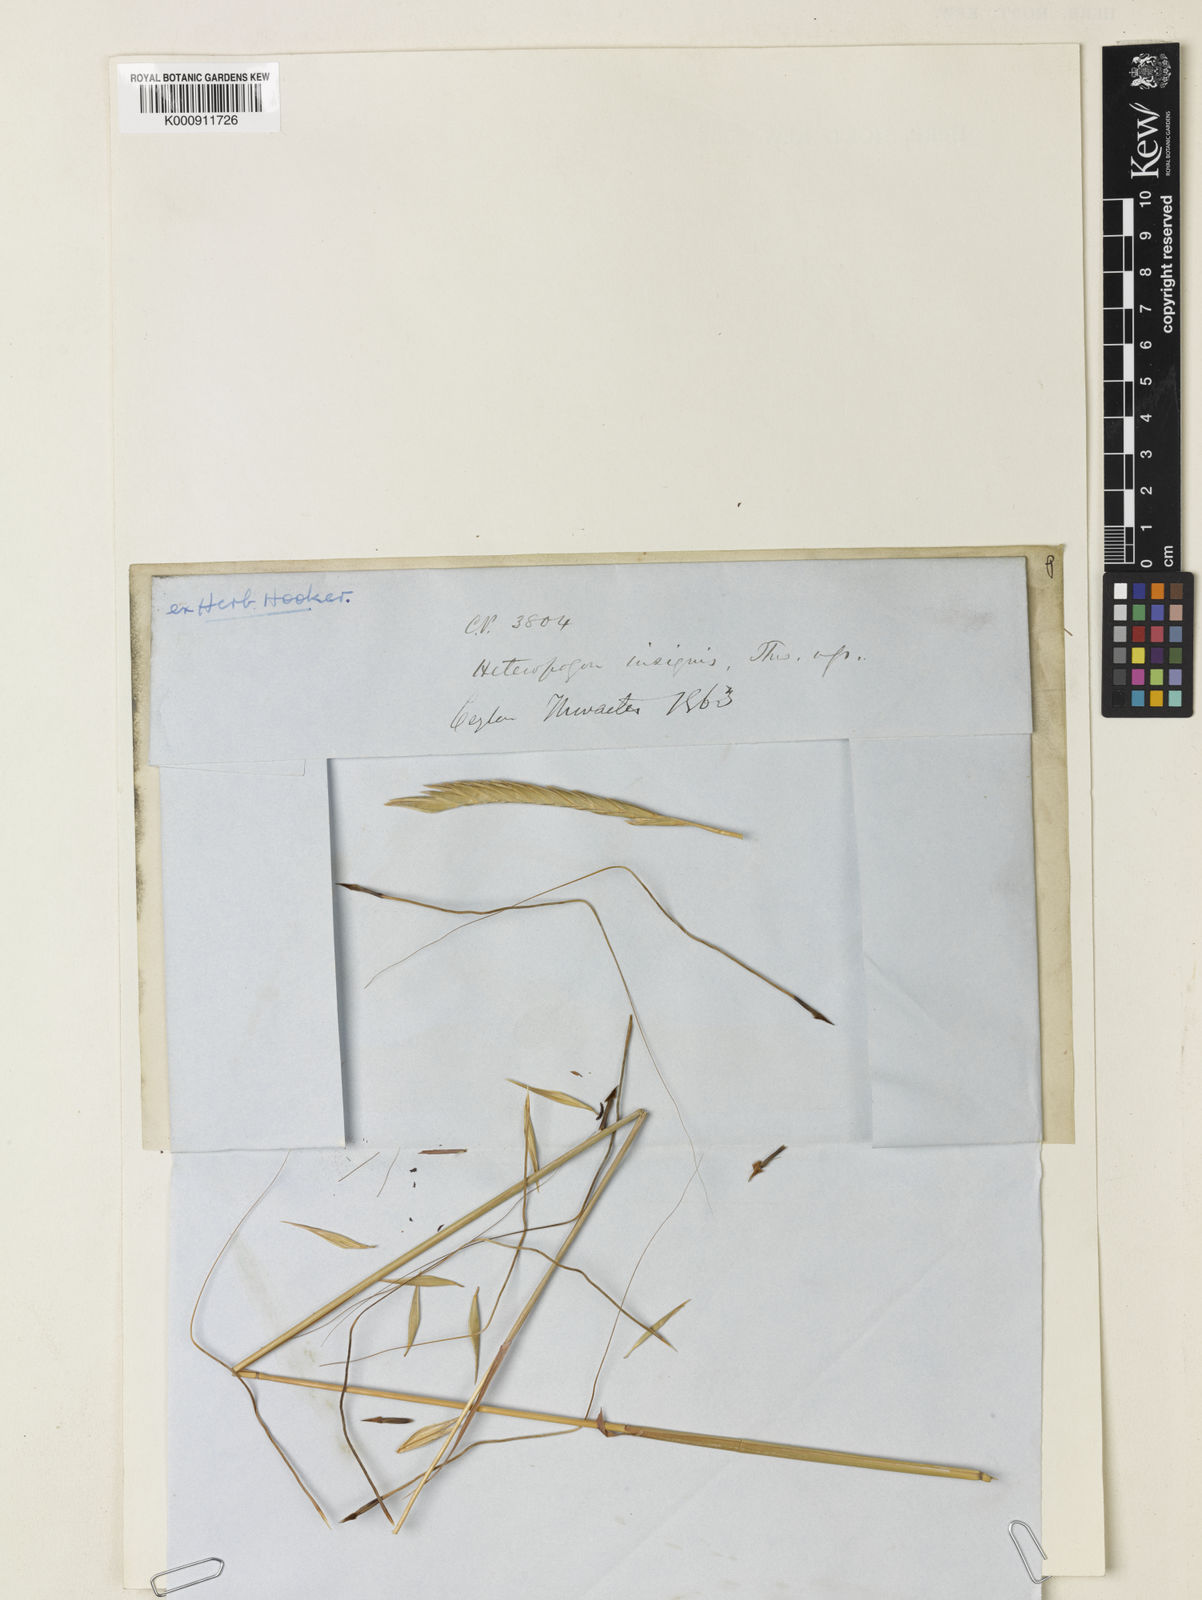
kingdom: Plantae
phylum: Tracheophyta
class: Liliopsida
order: Poales
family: Poaceae
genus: Heteropogon
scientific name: Heteropogon triticeus
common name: Sugar grass
